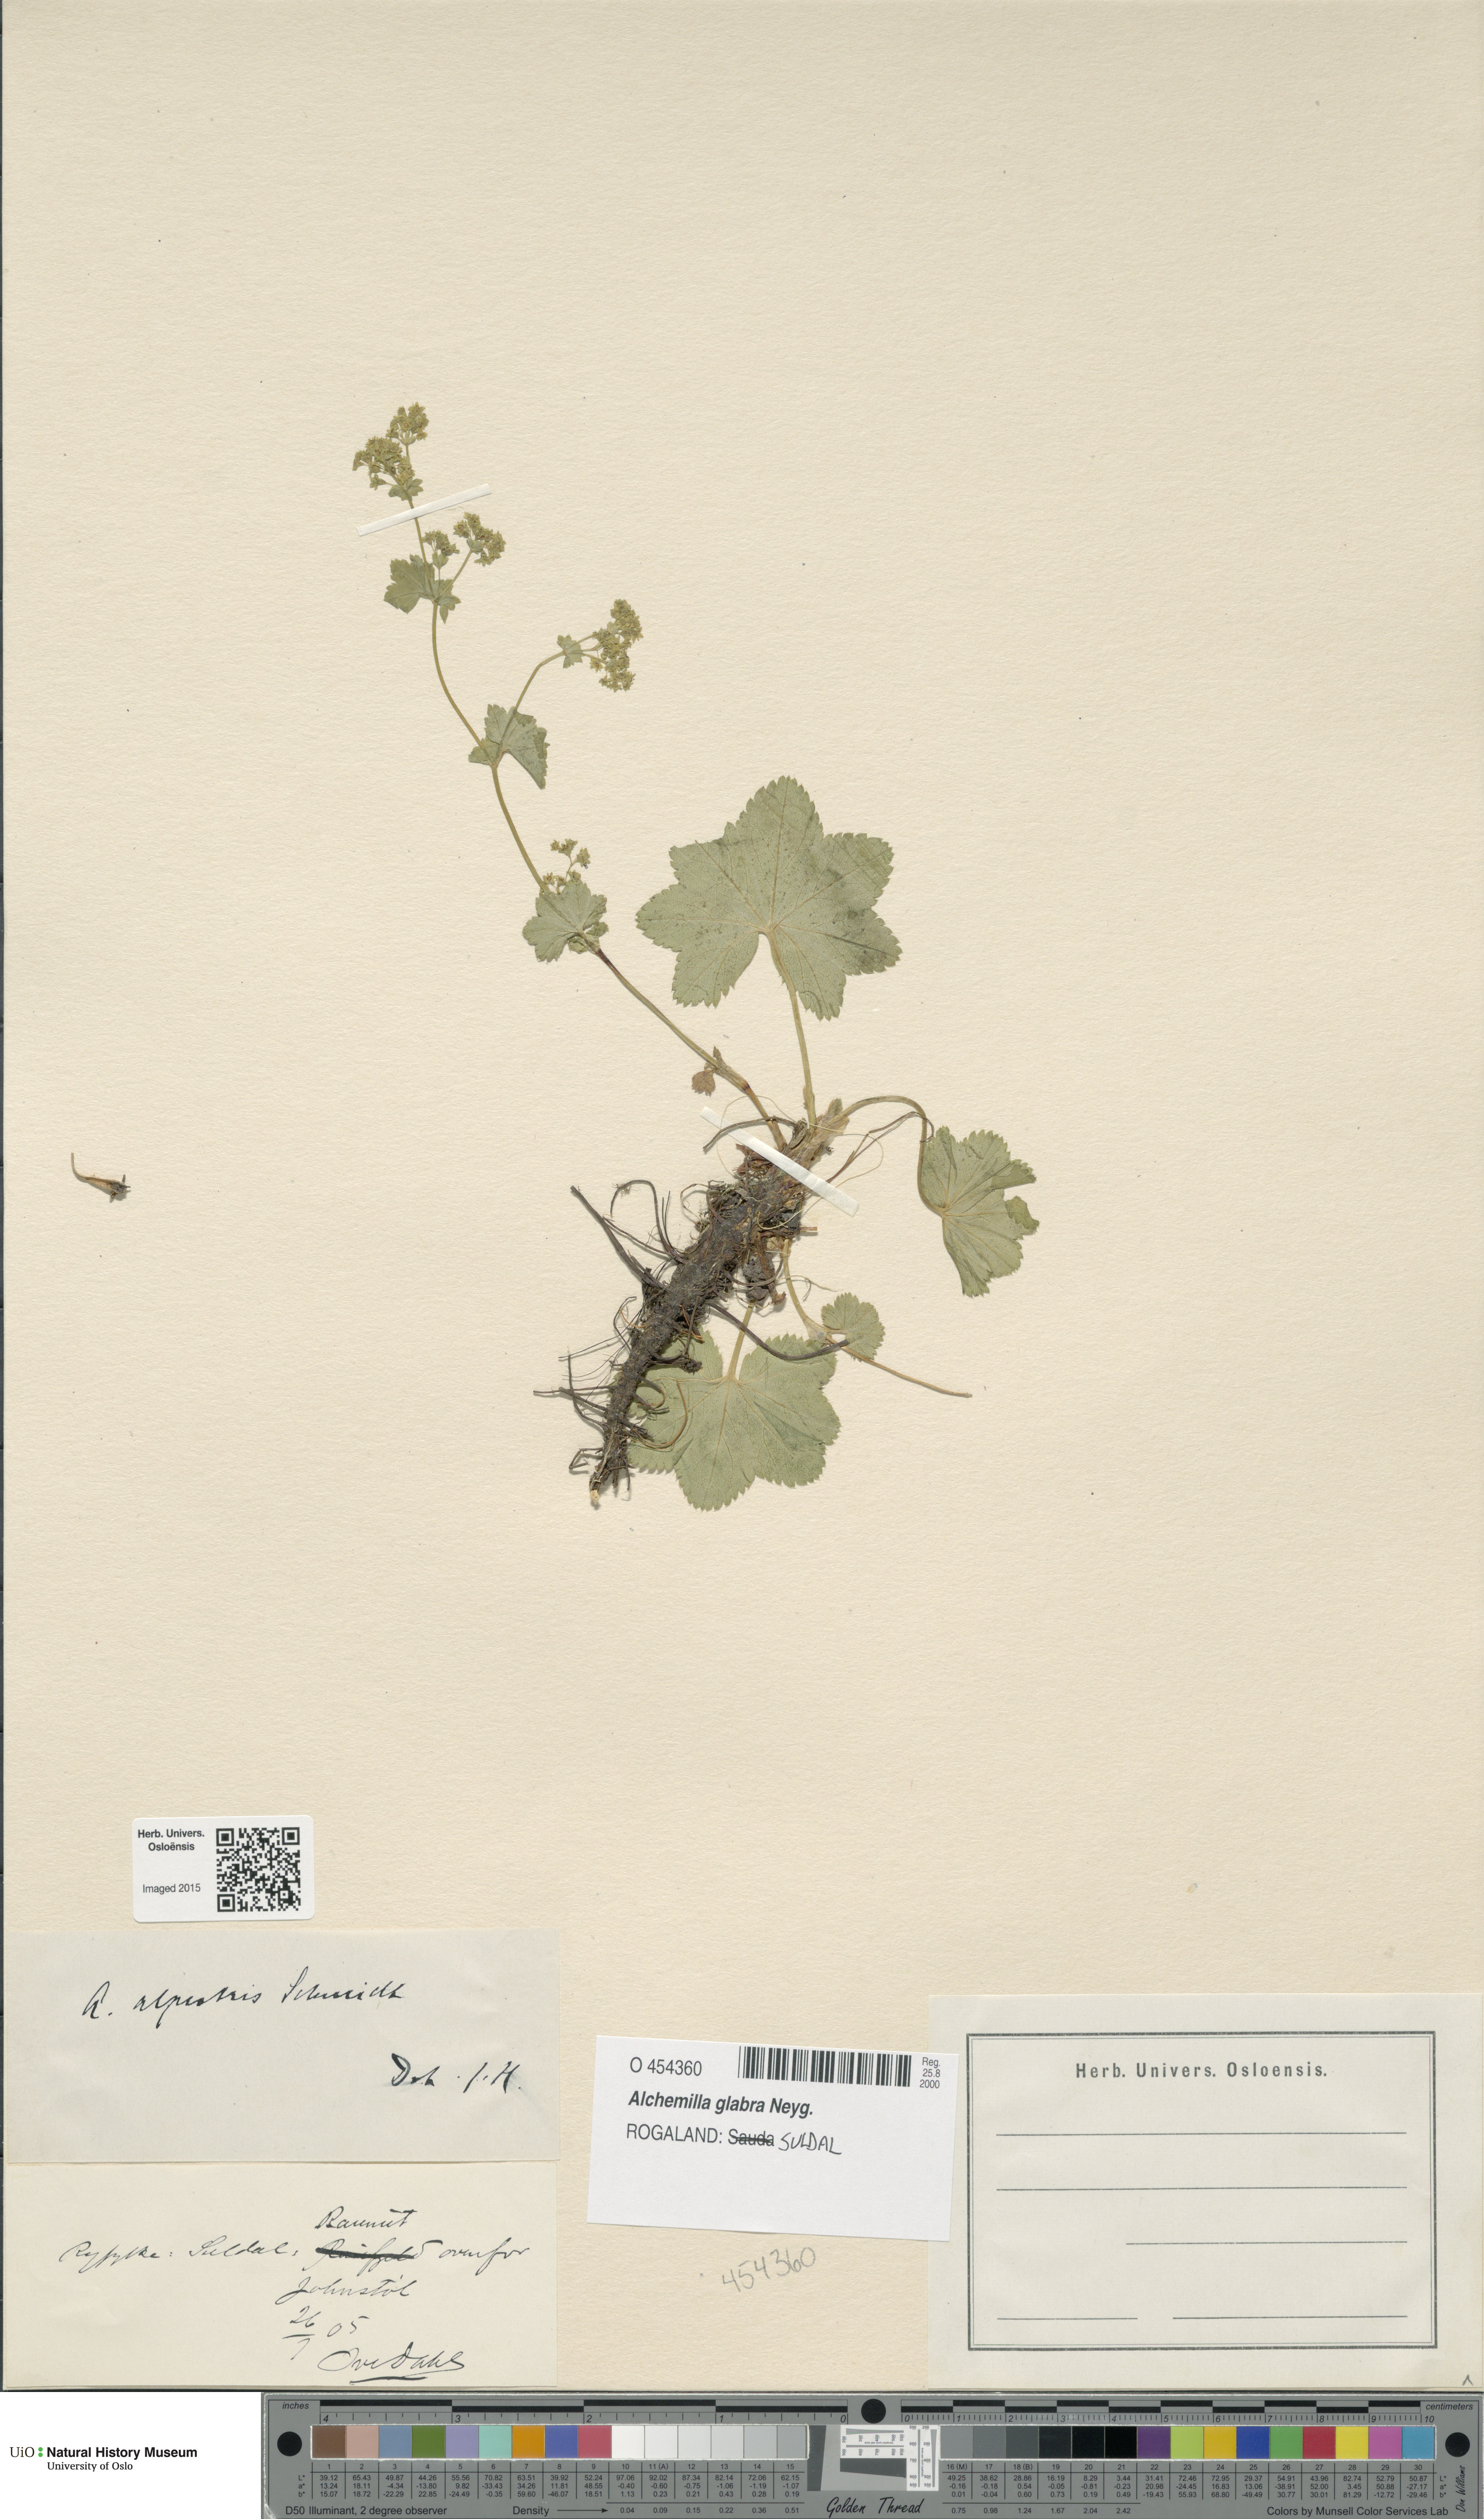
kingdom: Plantae
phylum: Tracheophyta
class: Magnoliopsida
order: Rosales
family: Rosaceae
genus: Alchemilla
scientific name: Alchemilla glabra
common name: Smooth lady's-mantle
